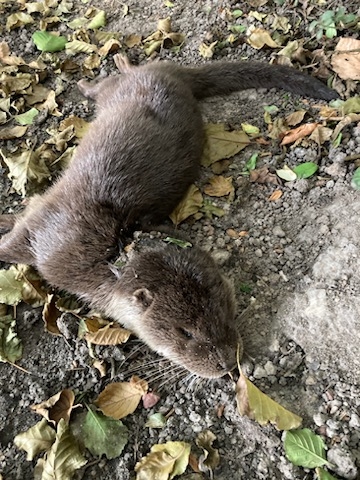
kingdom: Animalia
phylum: Chordata
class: Mammalia
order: Carnivora
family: Mustelidae
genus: Lutra
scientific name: Lutra lutra
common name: Odder
